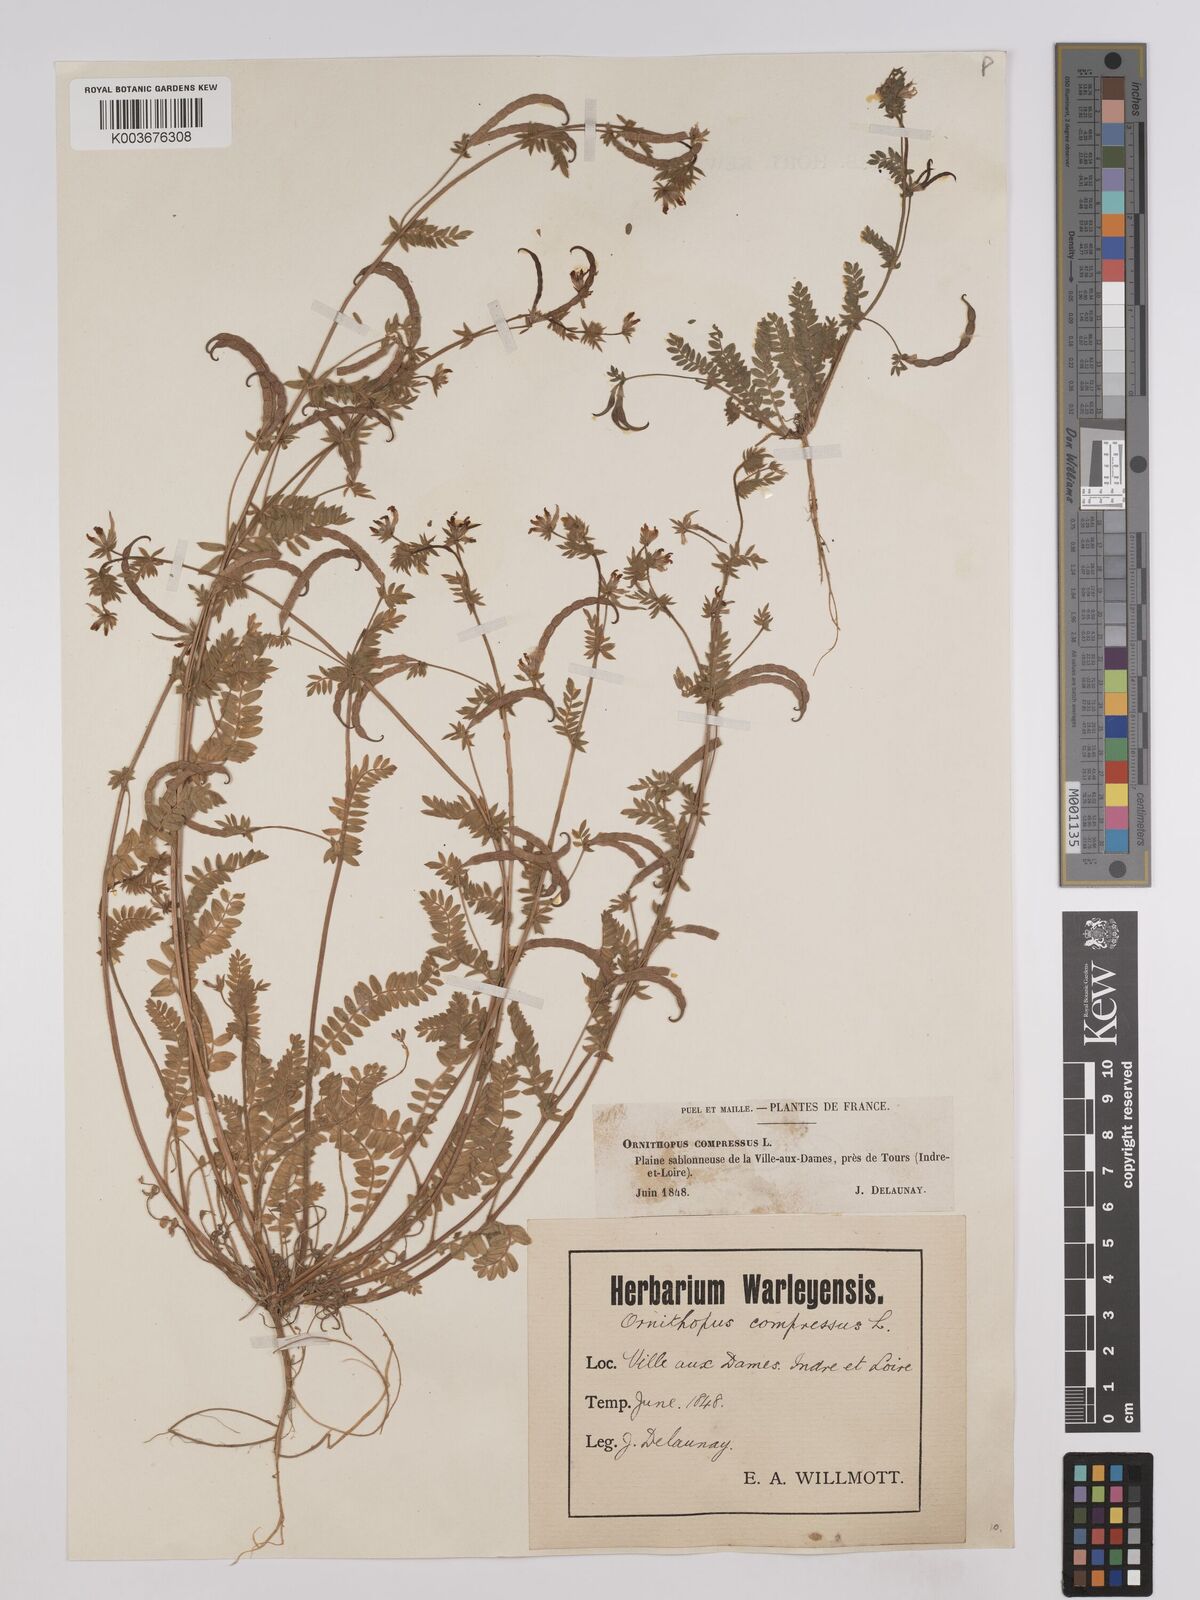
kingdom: Plantae
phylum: Tracheophyta
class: Magnoliopsida
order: Fabales
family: Fabaceae
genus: Ornithopus
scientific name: Ornithopus compressus
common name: Yellow serradella
